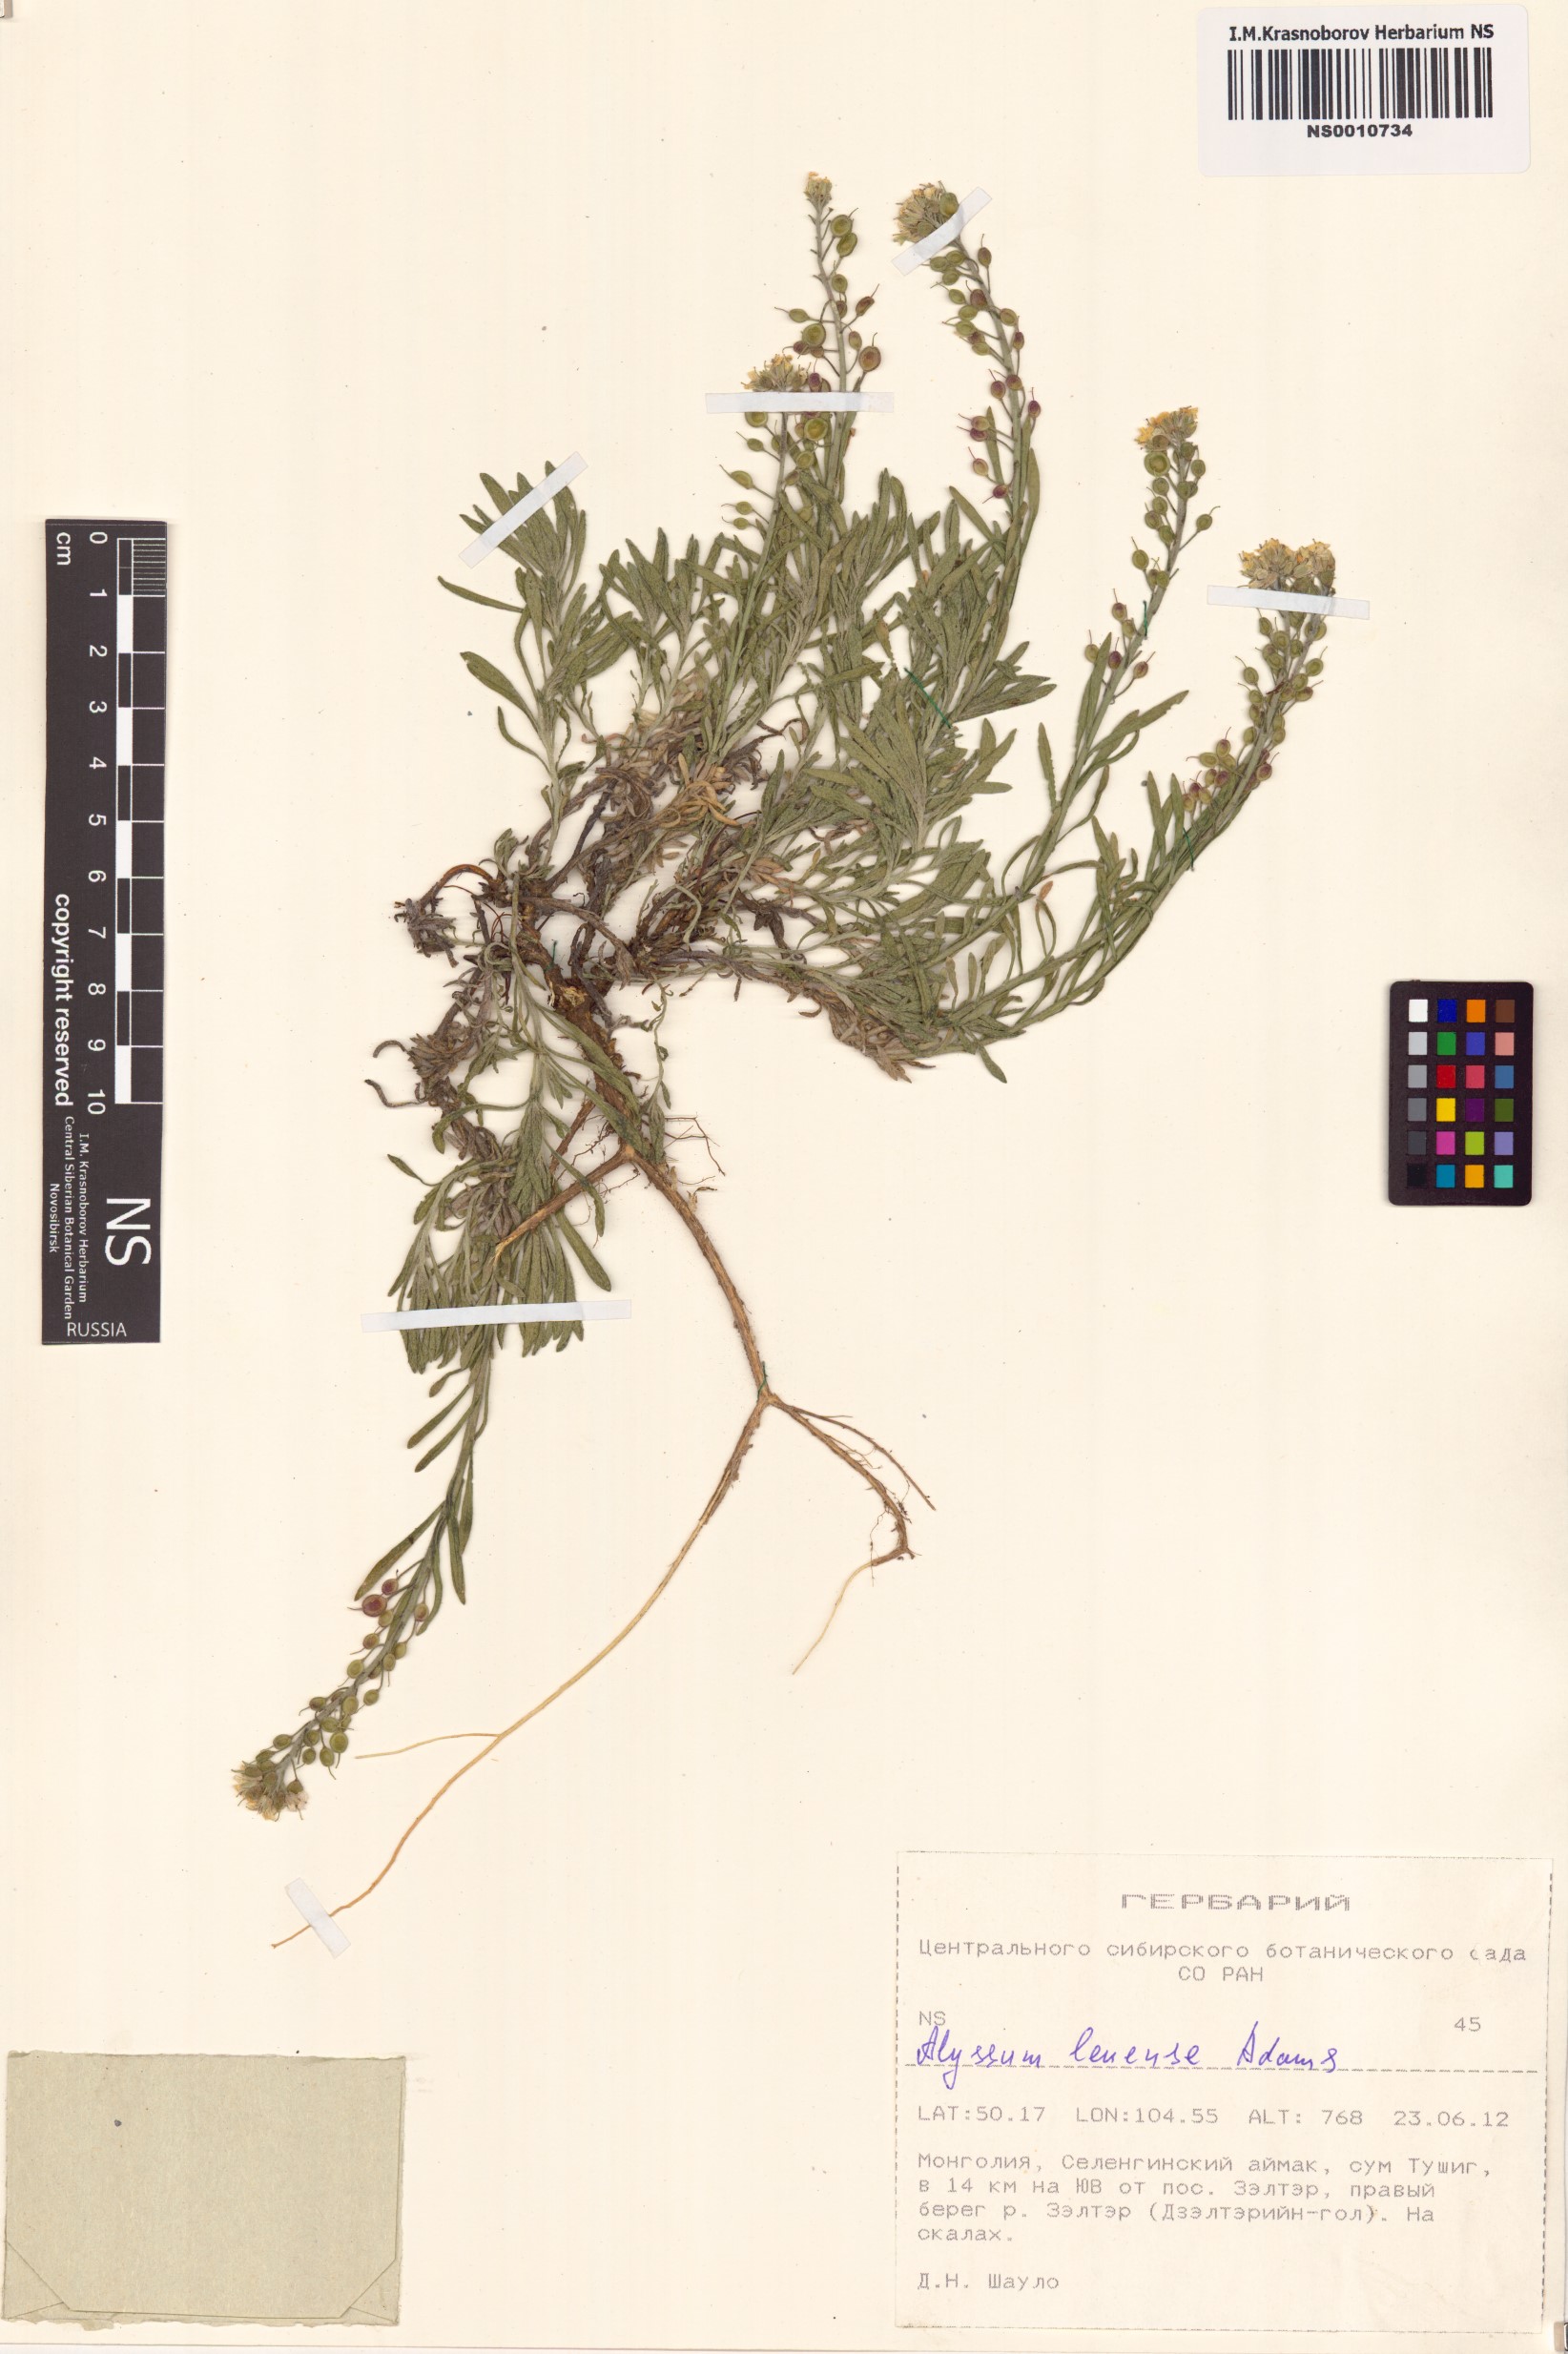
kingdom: Plantae
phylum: Tracheophyta
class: Magnoliopsida
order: Brassicales
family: Brassicaceae
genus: Alyssum
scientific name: Alyssum lenense
